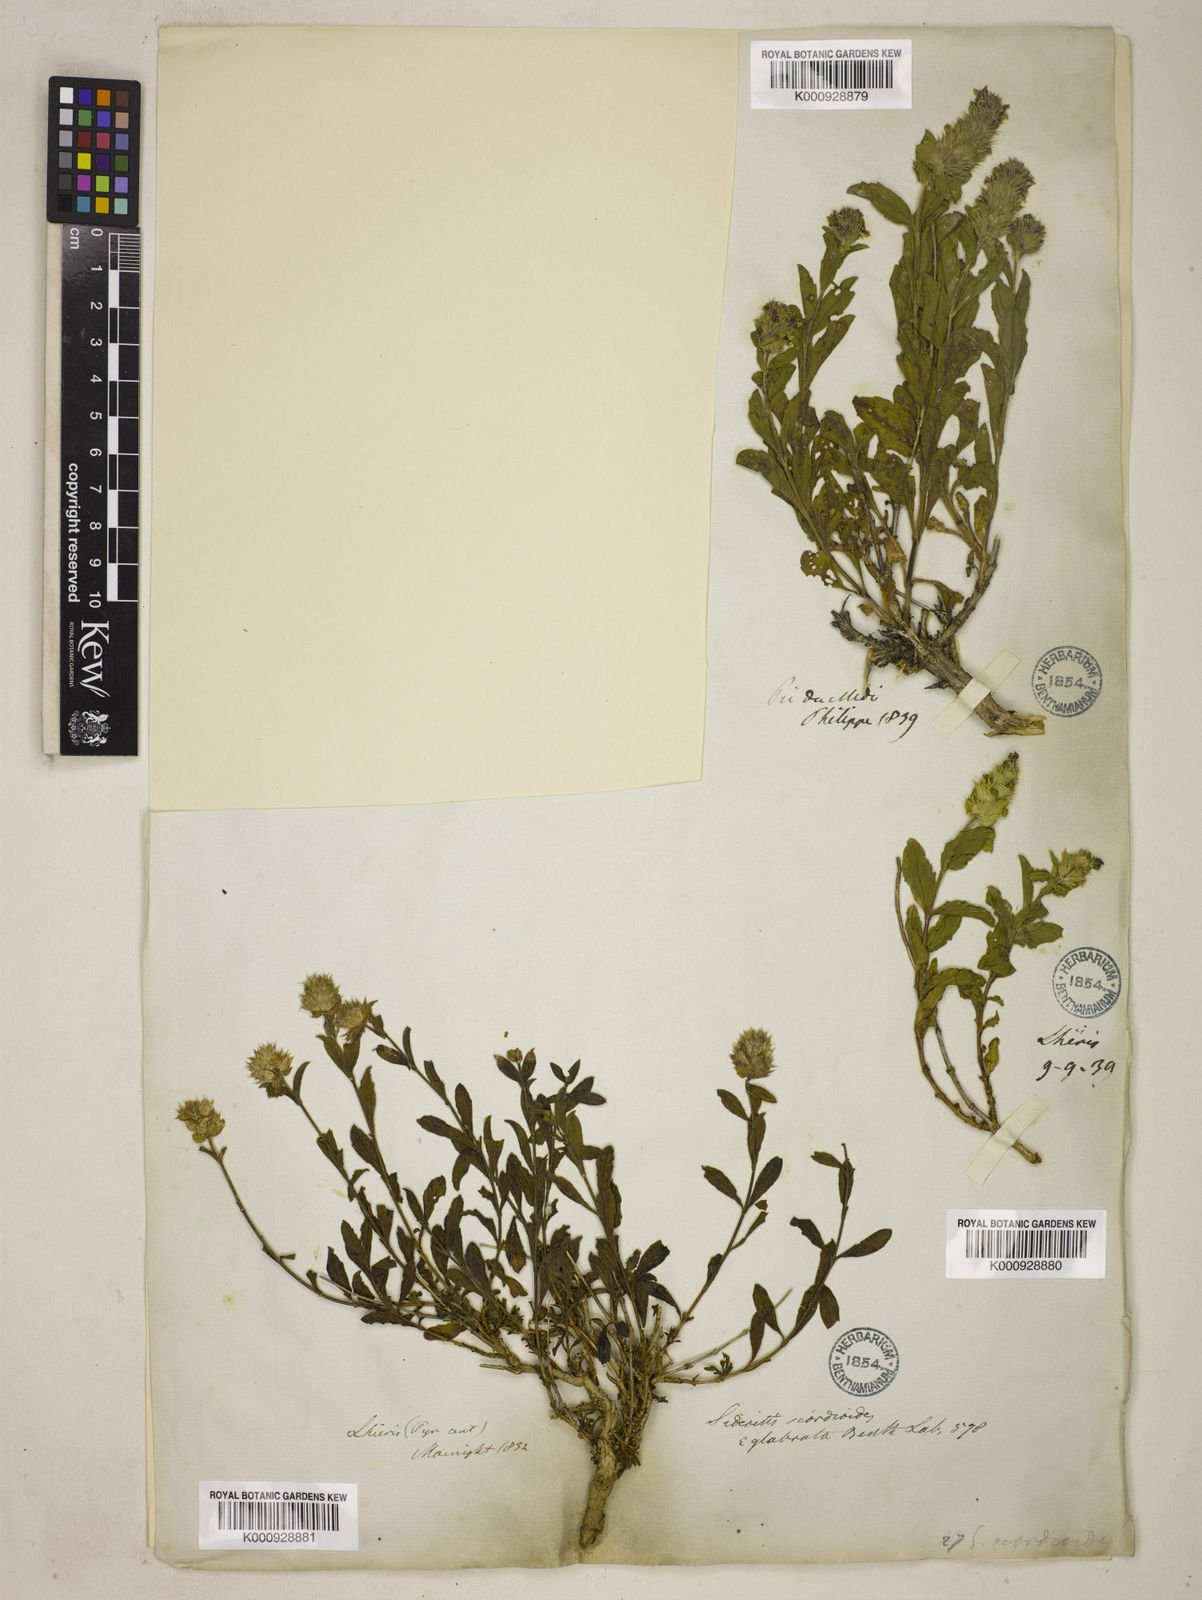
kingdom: Plantae
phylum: Tracheophyta
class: Magnoliopsida
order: Lamiales
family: Lamiaceae
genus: Sideritis
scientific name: Sideritis hyssopifolia
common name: Mountain tea
